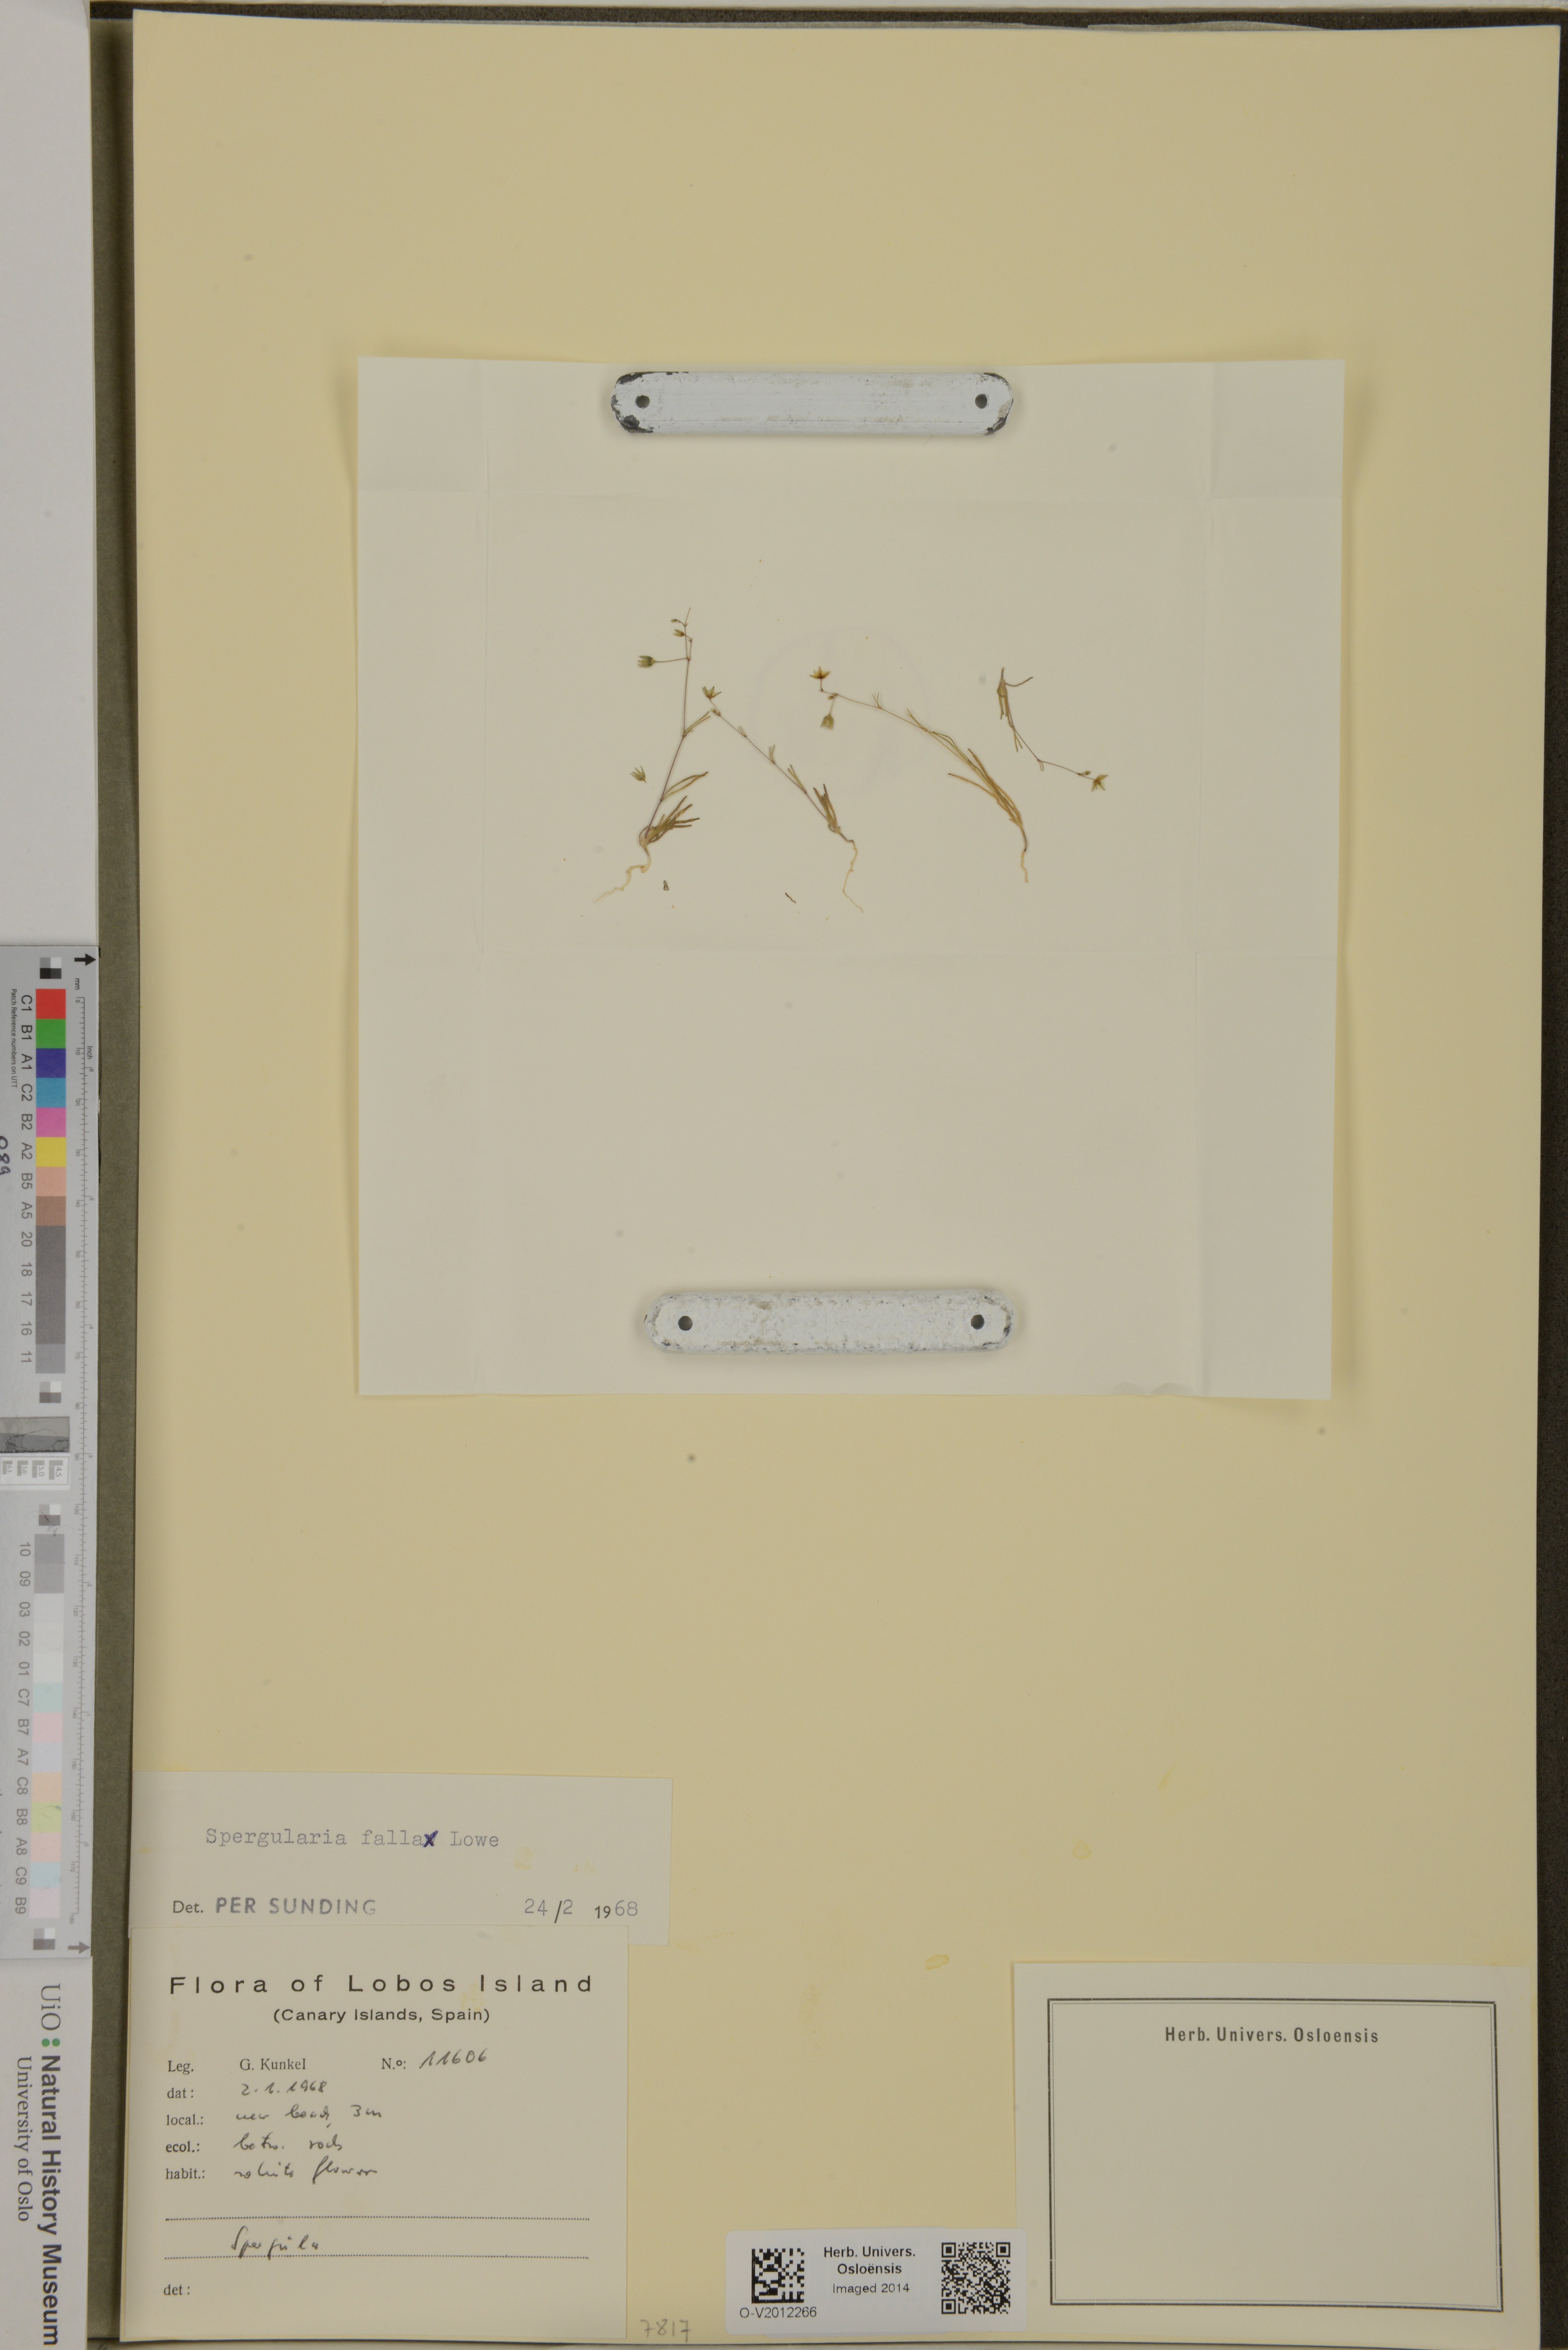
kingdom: Plantae
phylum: Tracheophyta
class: Magnoliopsida
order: Caryophyllales
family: Caryophyllaceae
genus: Spergularia
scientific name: Spergularia flaccida
